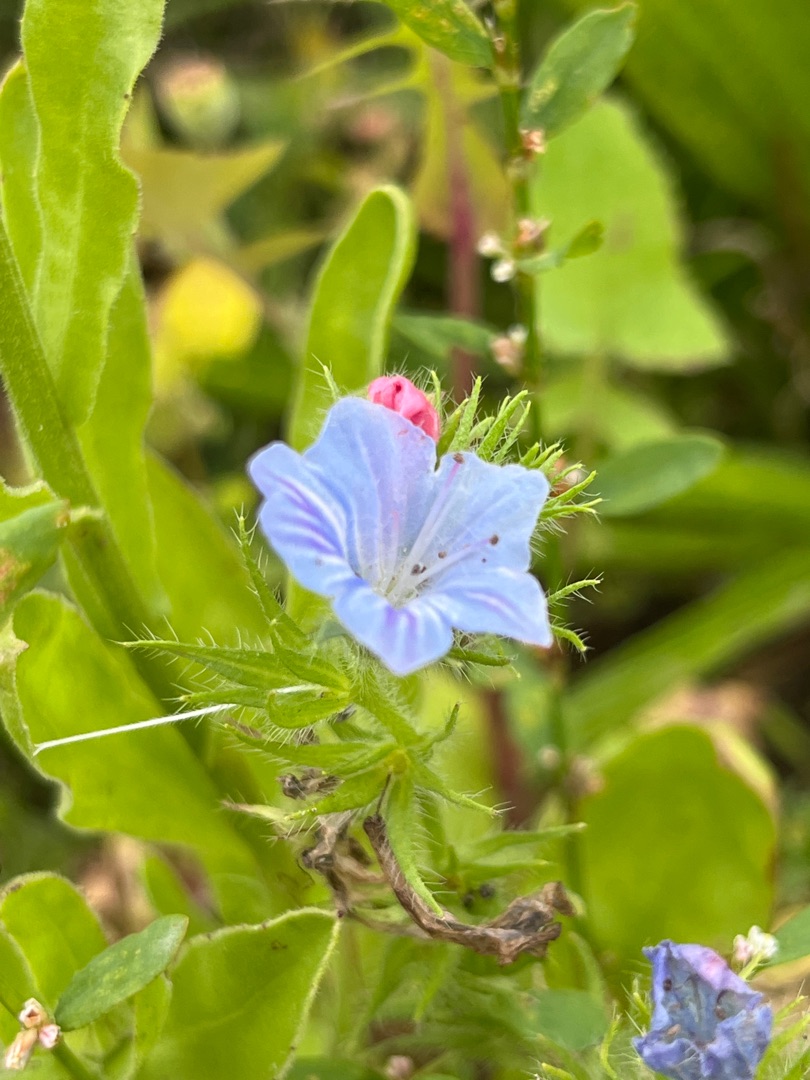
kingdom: Plantae
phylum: Tracheophyta
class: Magnoliopsida
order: Boraginales
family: Boraginaceae
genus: Echium
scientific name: Echium plantagineum
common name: Vejbred-slangehoved
